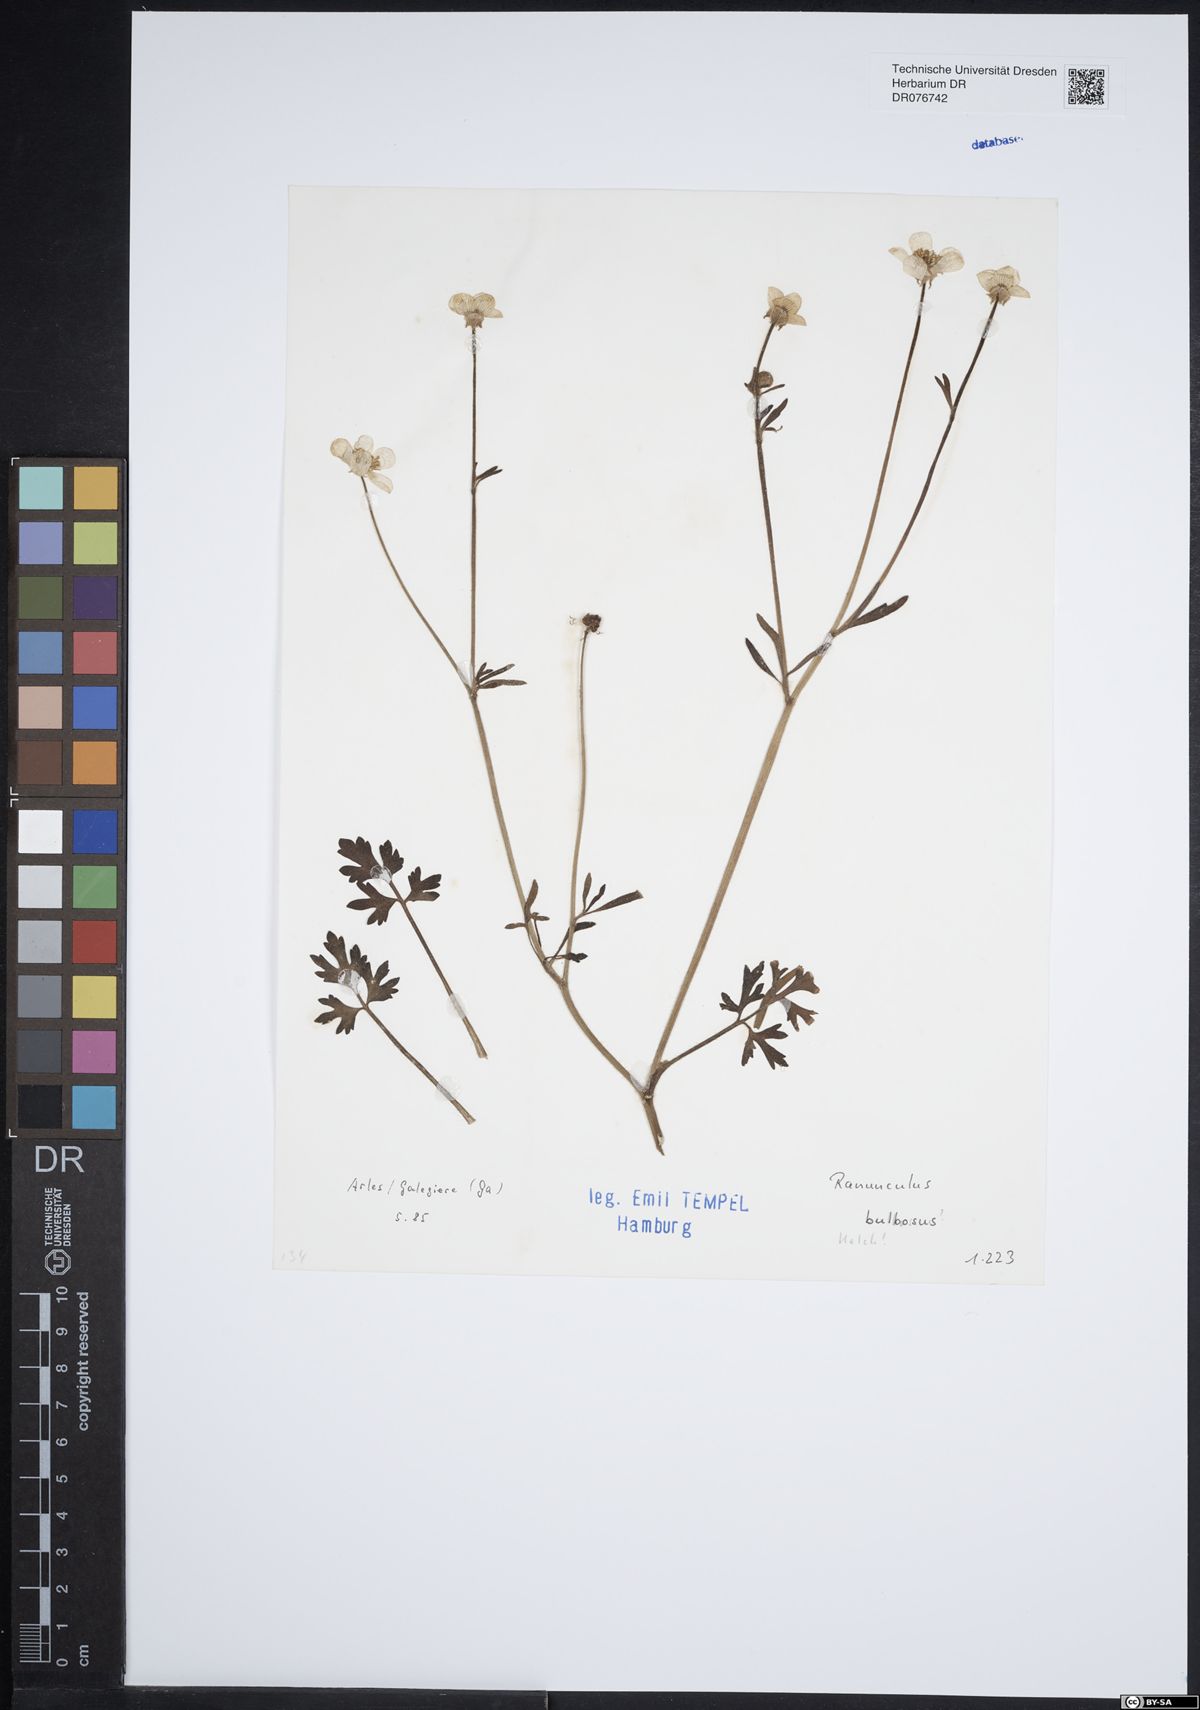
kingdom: Plantae
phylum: Tracheophyta
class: Magnoliopsida
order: Ranunculales
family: Ranunculaceae
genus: Ranunculus
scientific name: Ranunculus bulbosus
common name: Bulbous buttercup
